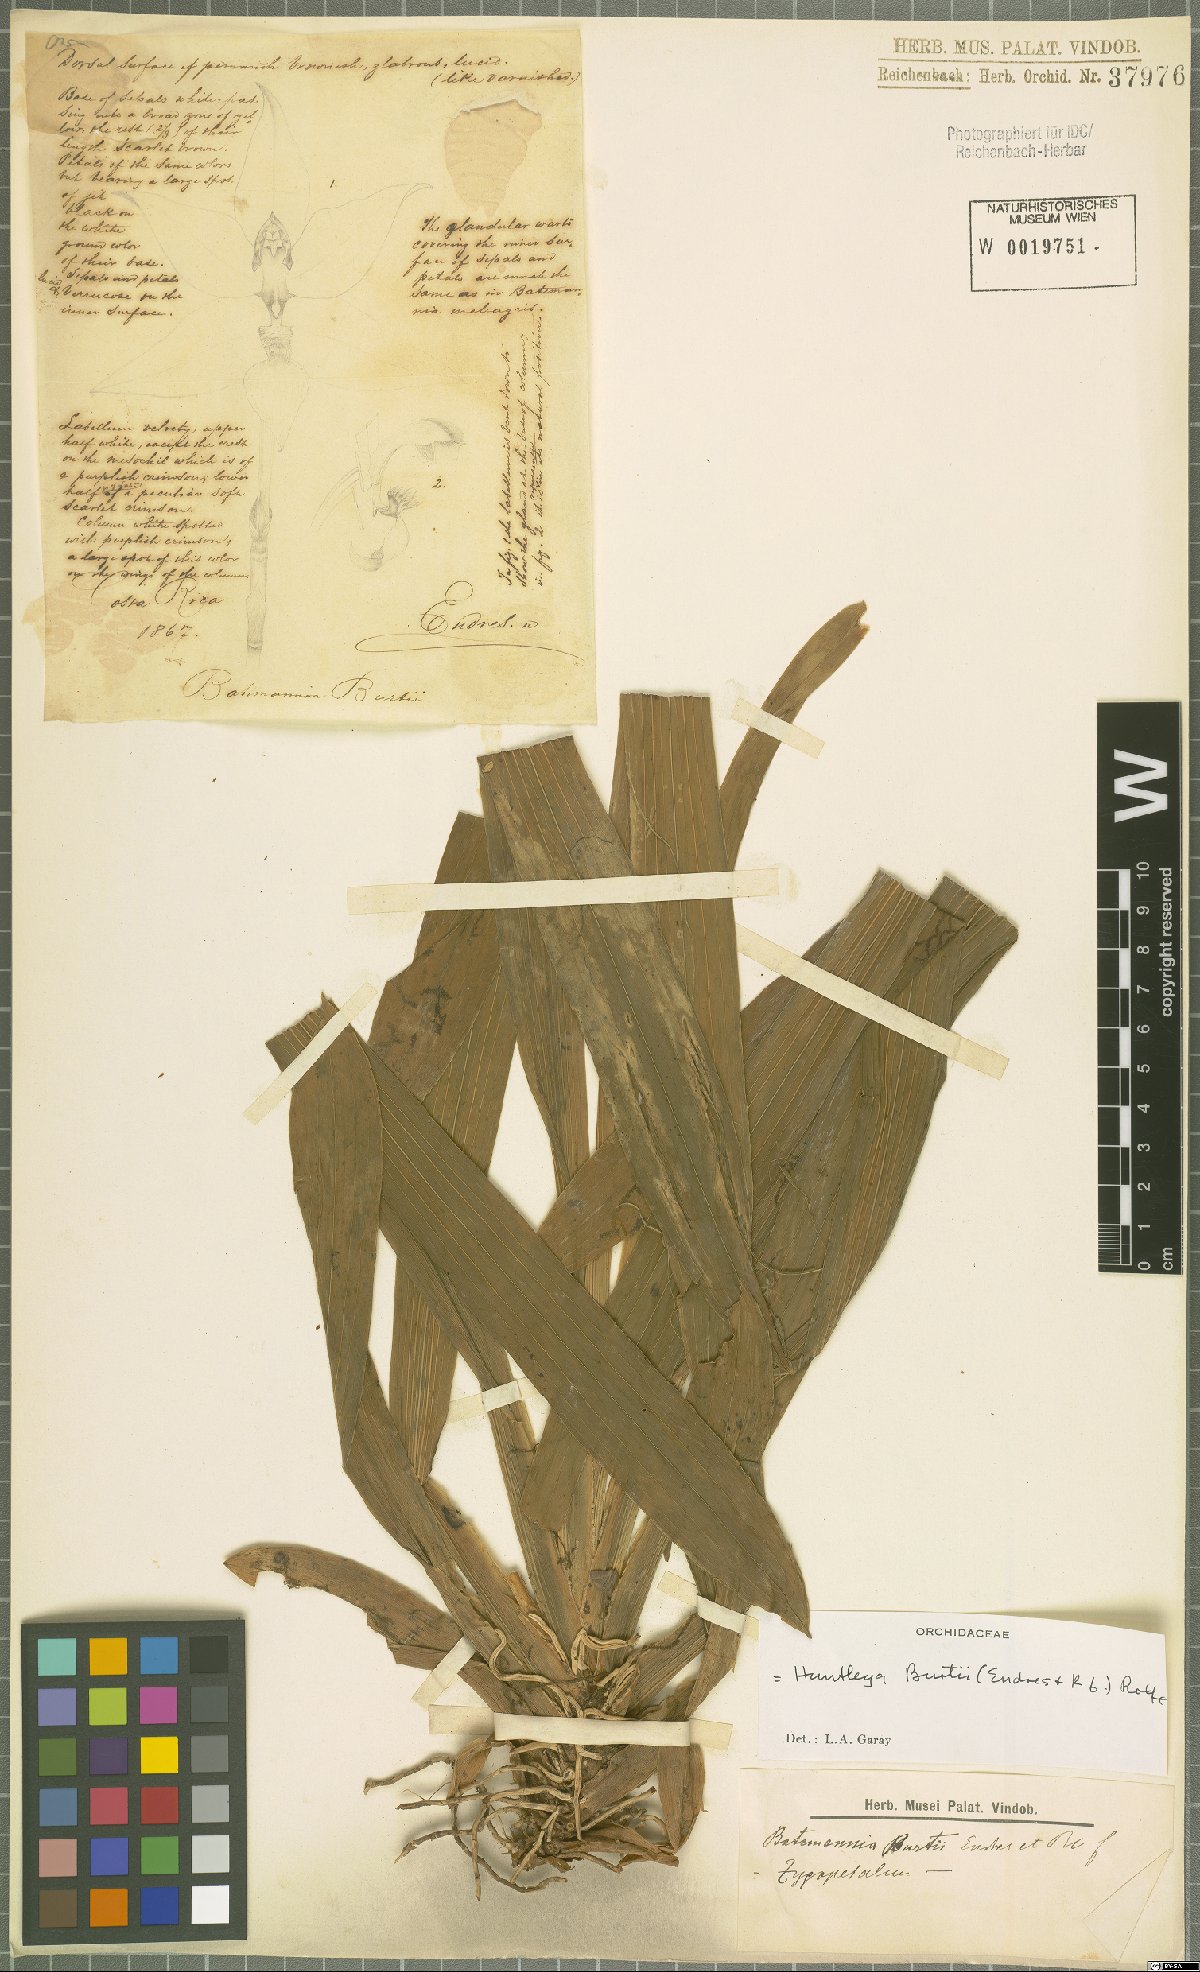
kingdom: Plantae
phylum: Tracheophyta
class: Liliopsida
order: Asparagales
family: Orchidaceae
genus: Huntleya
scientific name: Huntleya burtii
